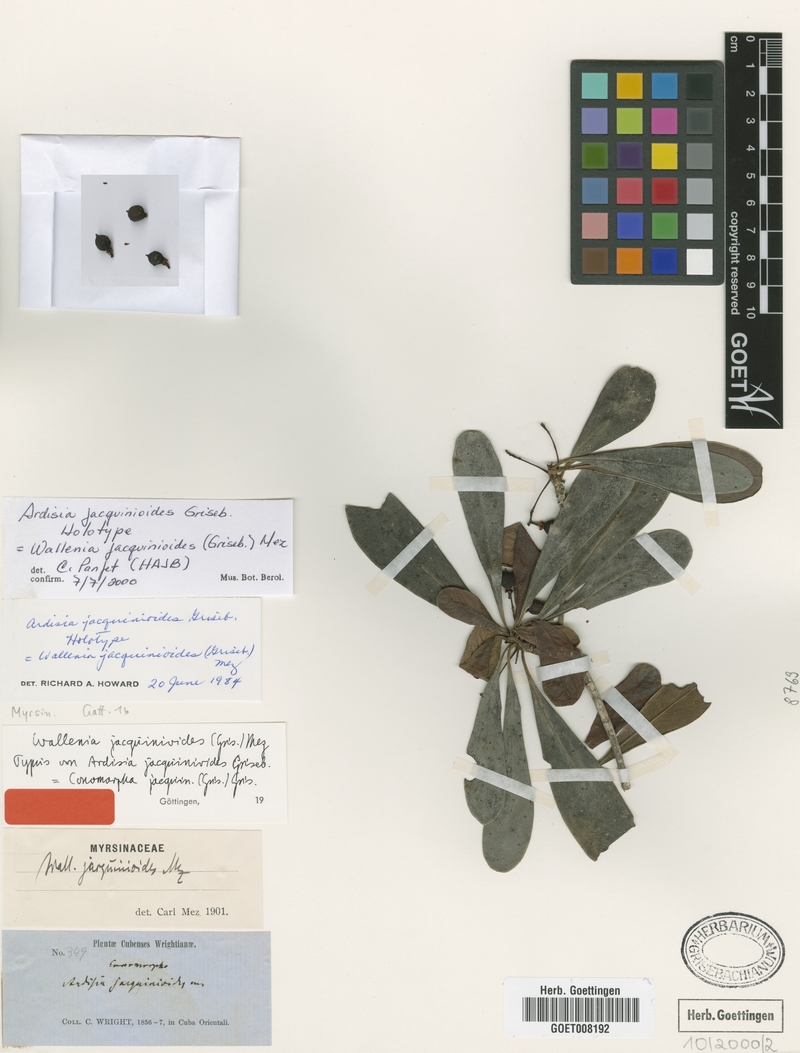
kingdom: Plantae
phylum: Tracheophyta
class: Magnoliopsida
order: Ericales
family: Primulaceae
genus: Wallenia
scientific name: Wallenia jacquinioides
